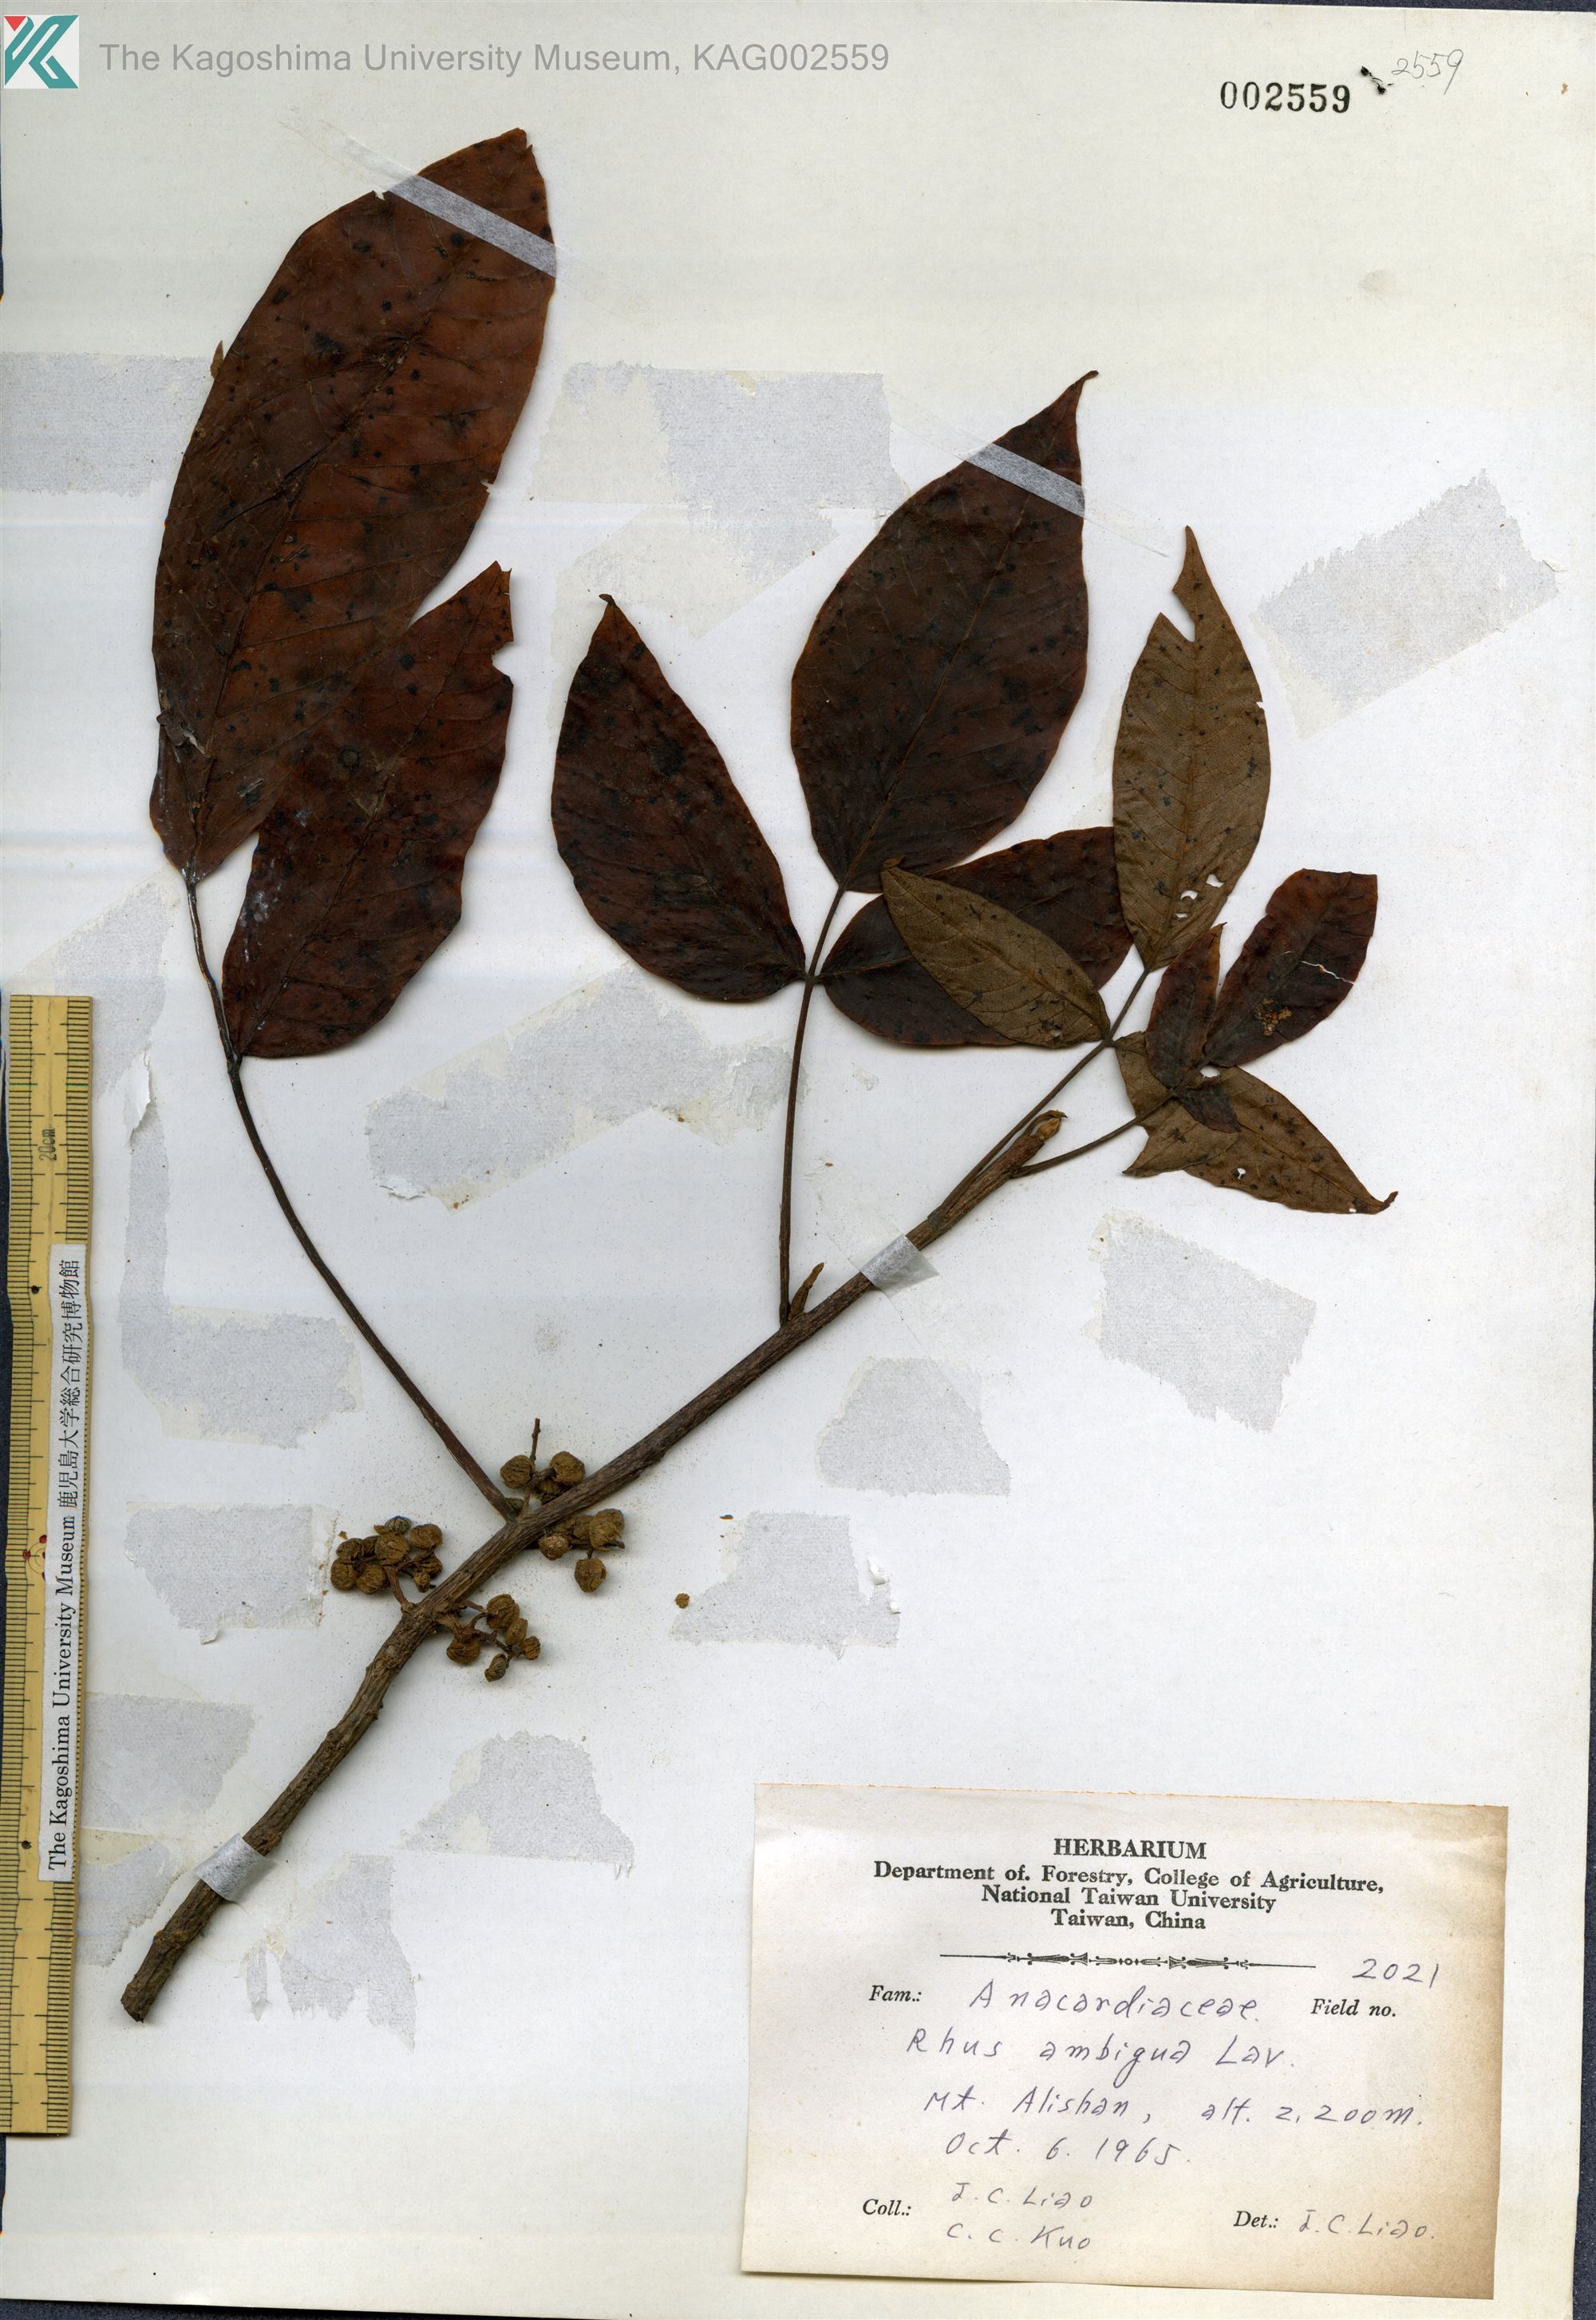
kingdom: Plantae
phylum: Tracheophyta
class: Magnoliopsida
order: Sapindales
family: Anacardiaceae
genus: Toxicodendron
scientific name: Toxicodendron orientale
